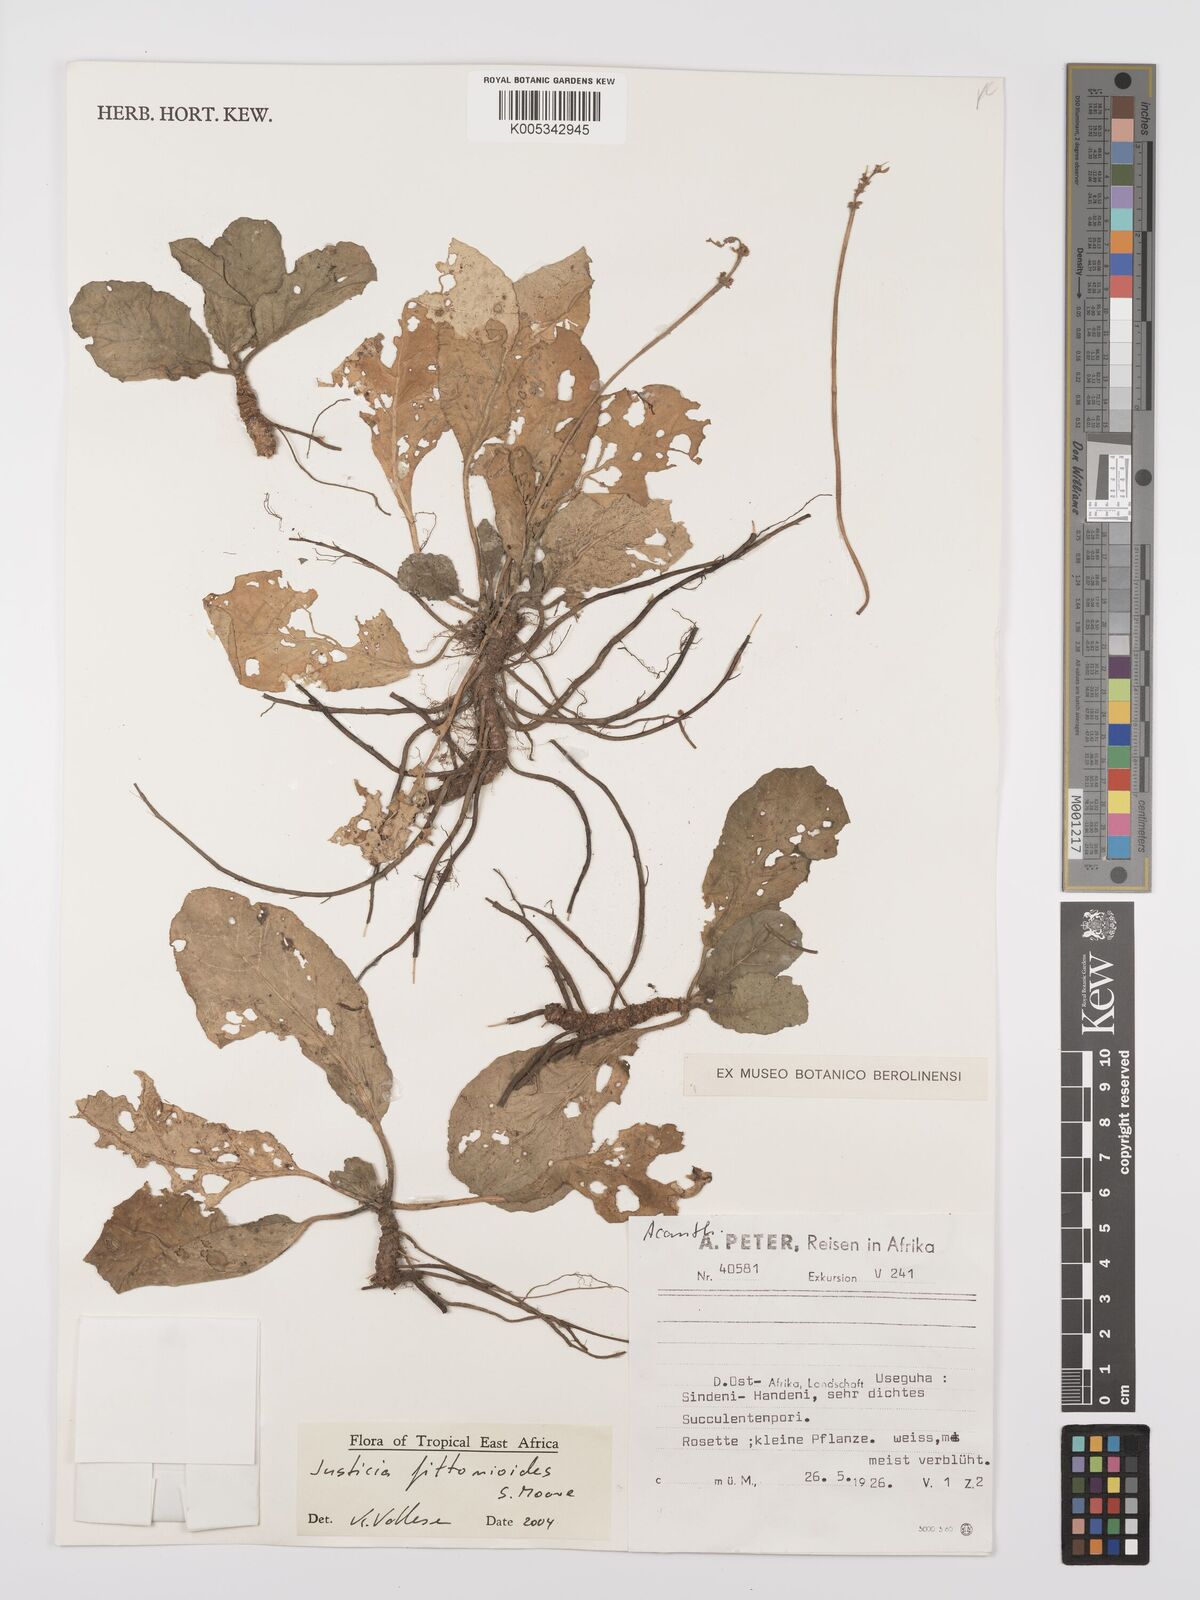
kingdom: Plantae
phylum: Tracheophyta
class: Magnoliopsida
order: Lamiales
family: Acanthaceae
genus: Justicia
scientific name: Justicia
